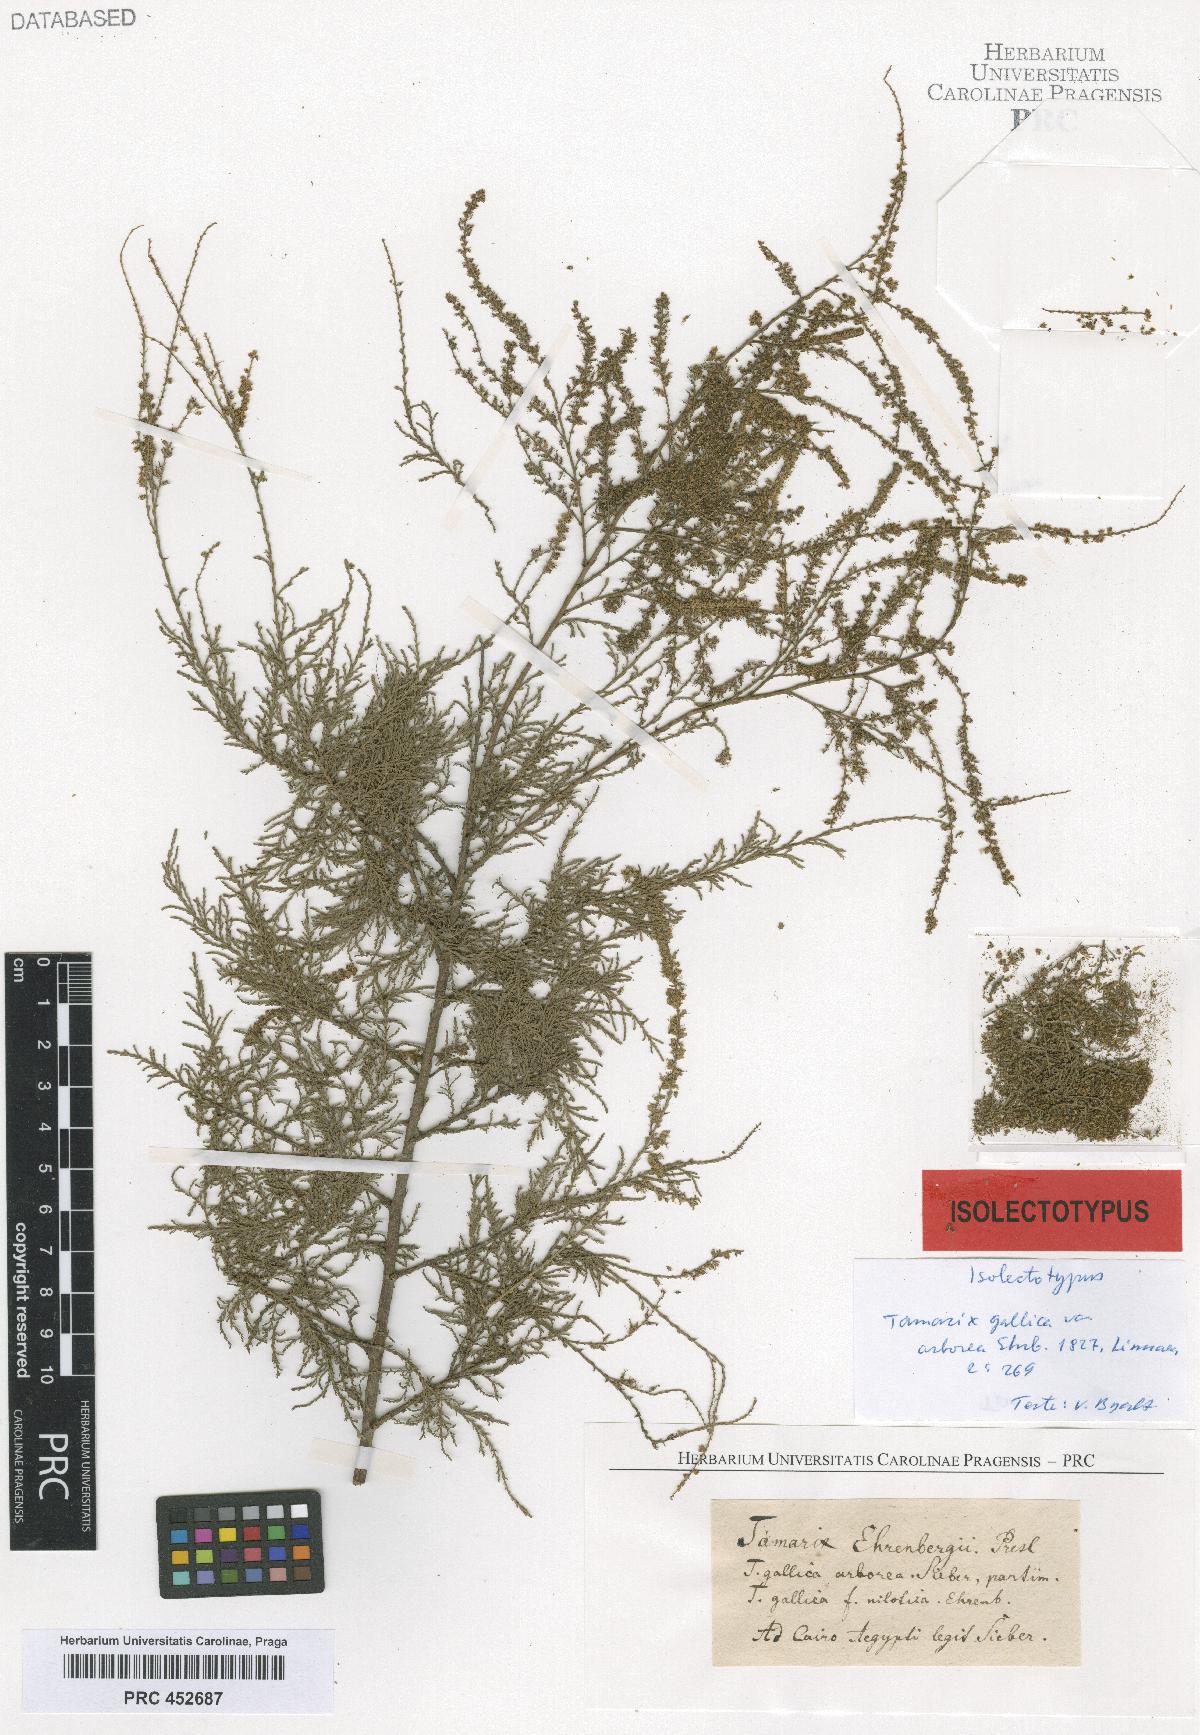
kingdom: Plantae
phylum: Tracheophyta
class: Magnoliopsida
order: Caryophyllales
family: Tamaricaceae
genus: Tamarix
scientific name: Tamarix
